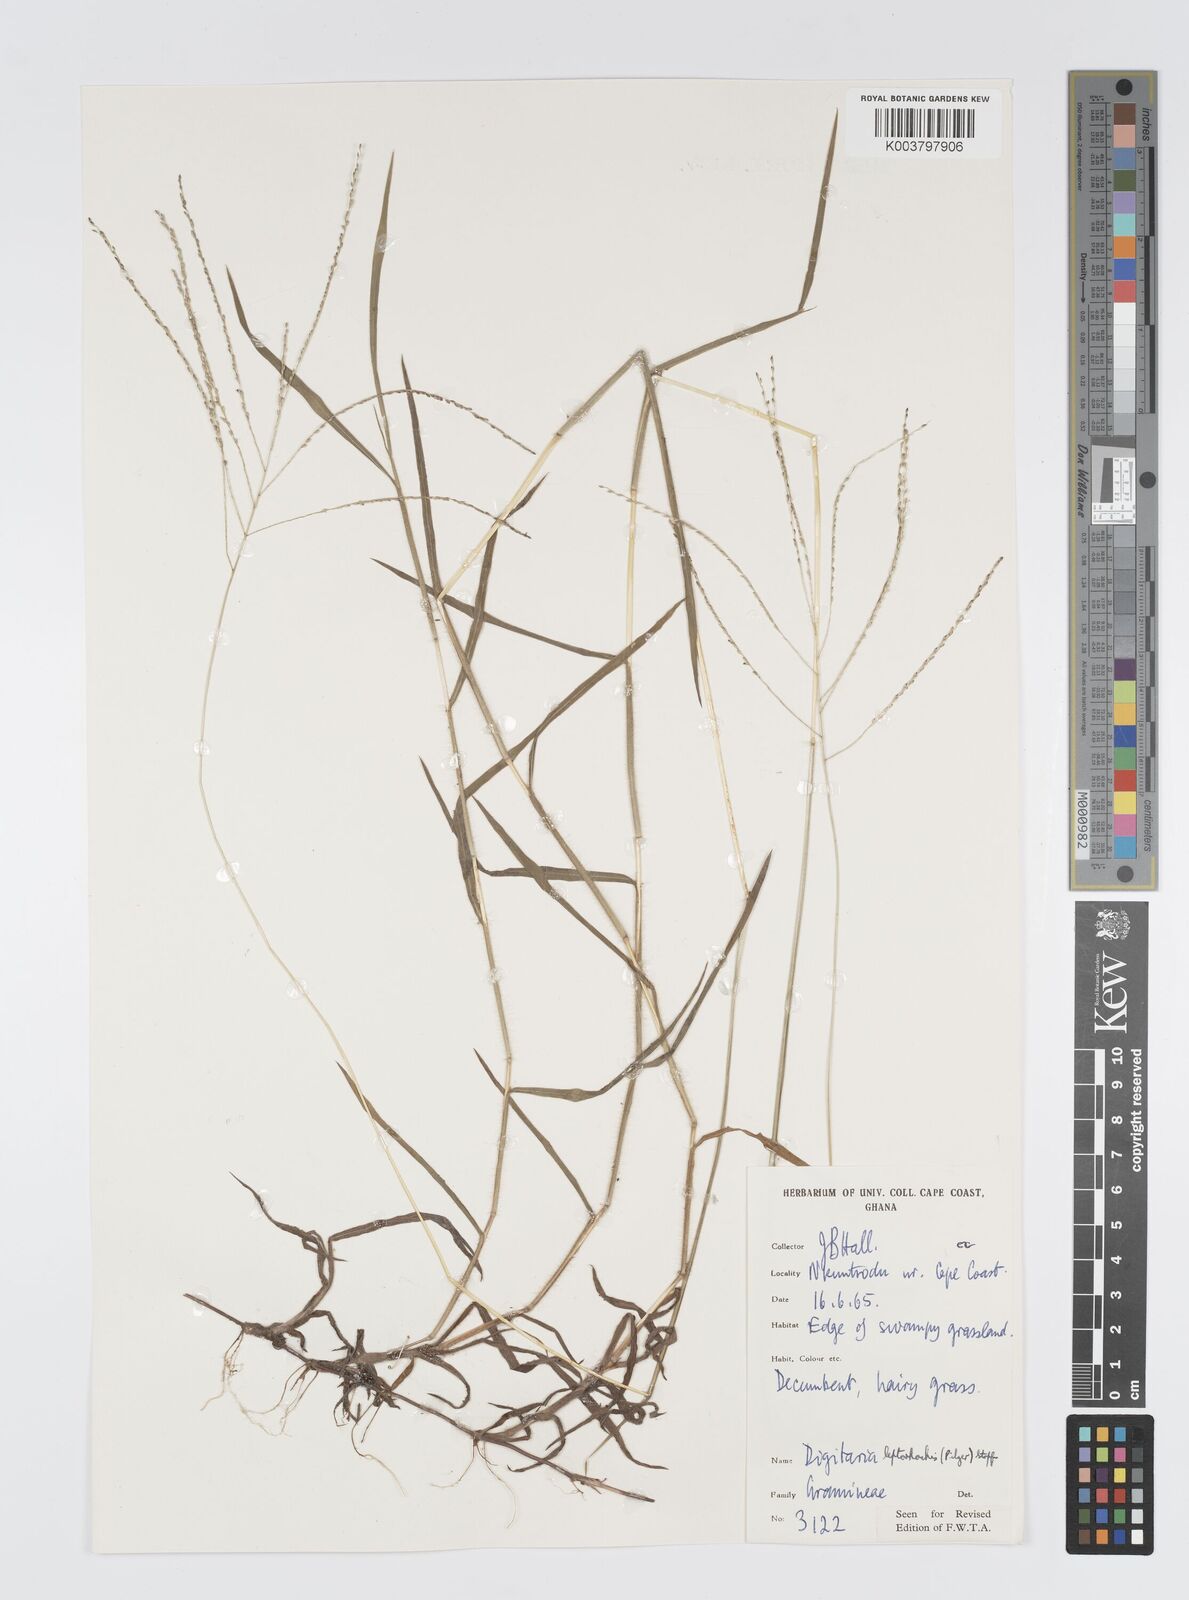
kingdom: Plantae
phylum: Tracheophyta
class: Liliopsida
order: Poales
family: Poaceae
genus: Digitaria
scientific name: Digitaria leptorhachis
